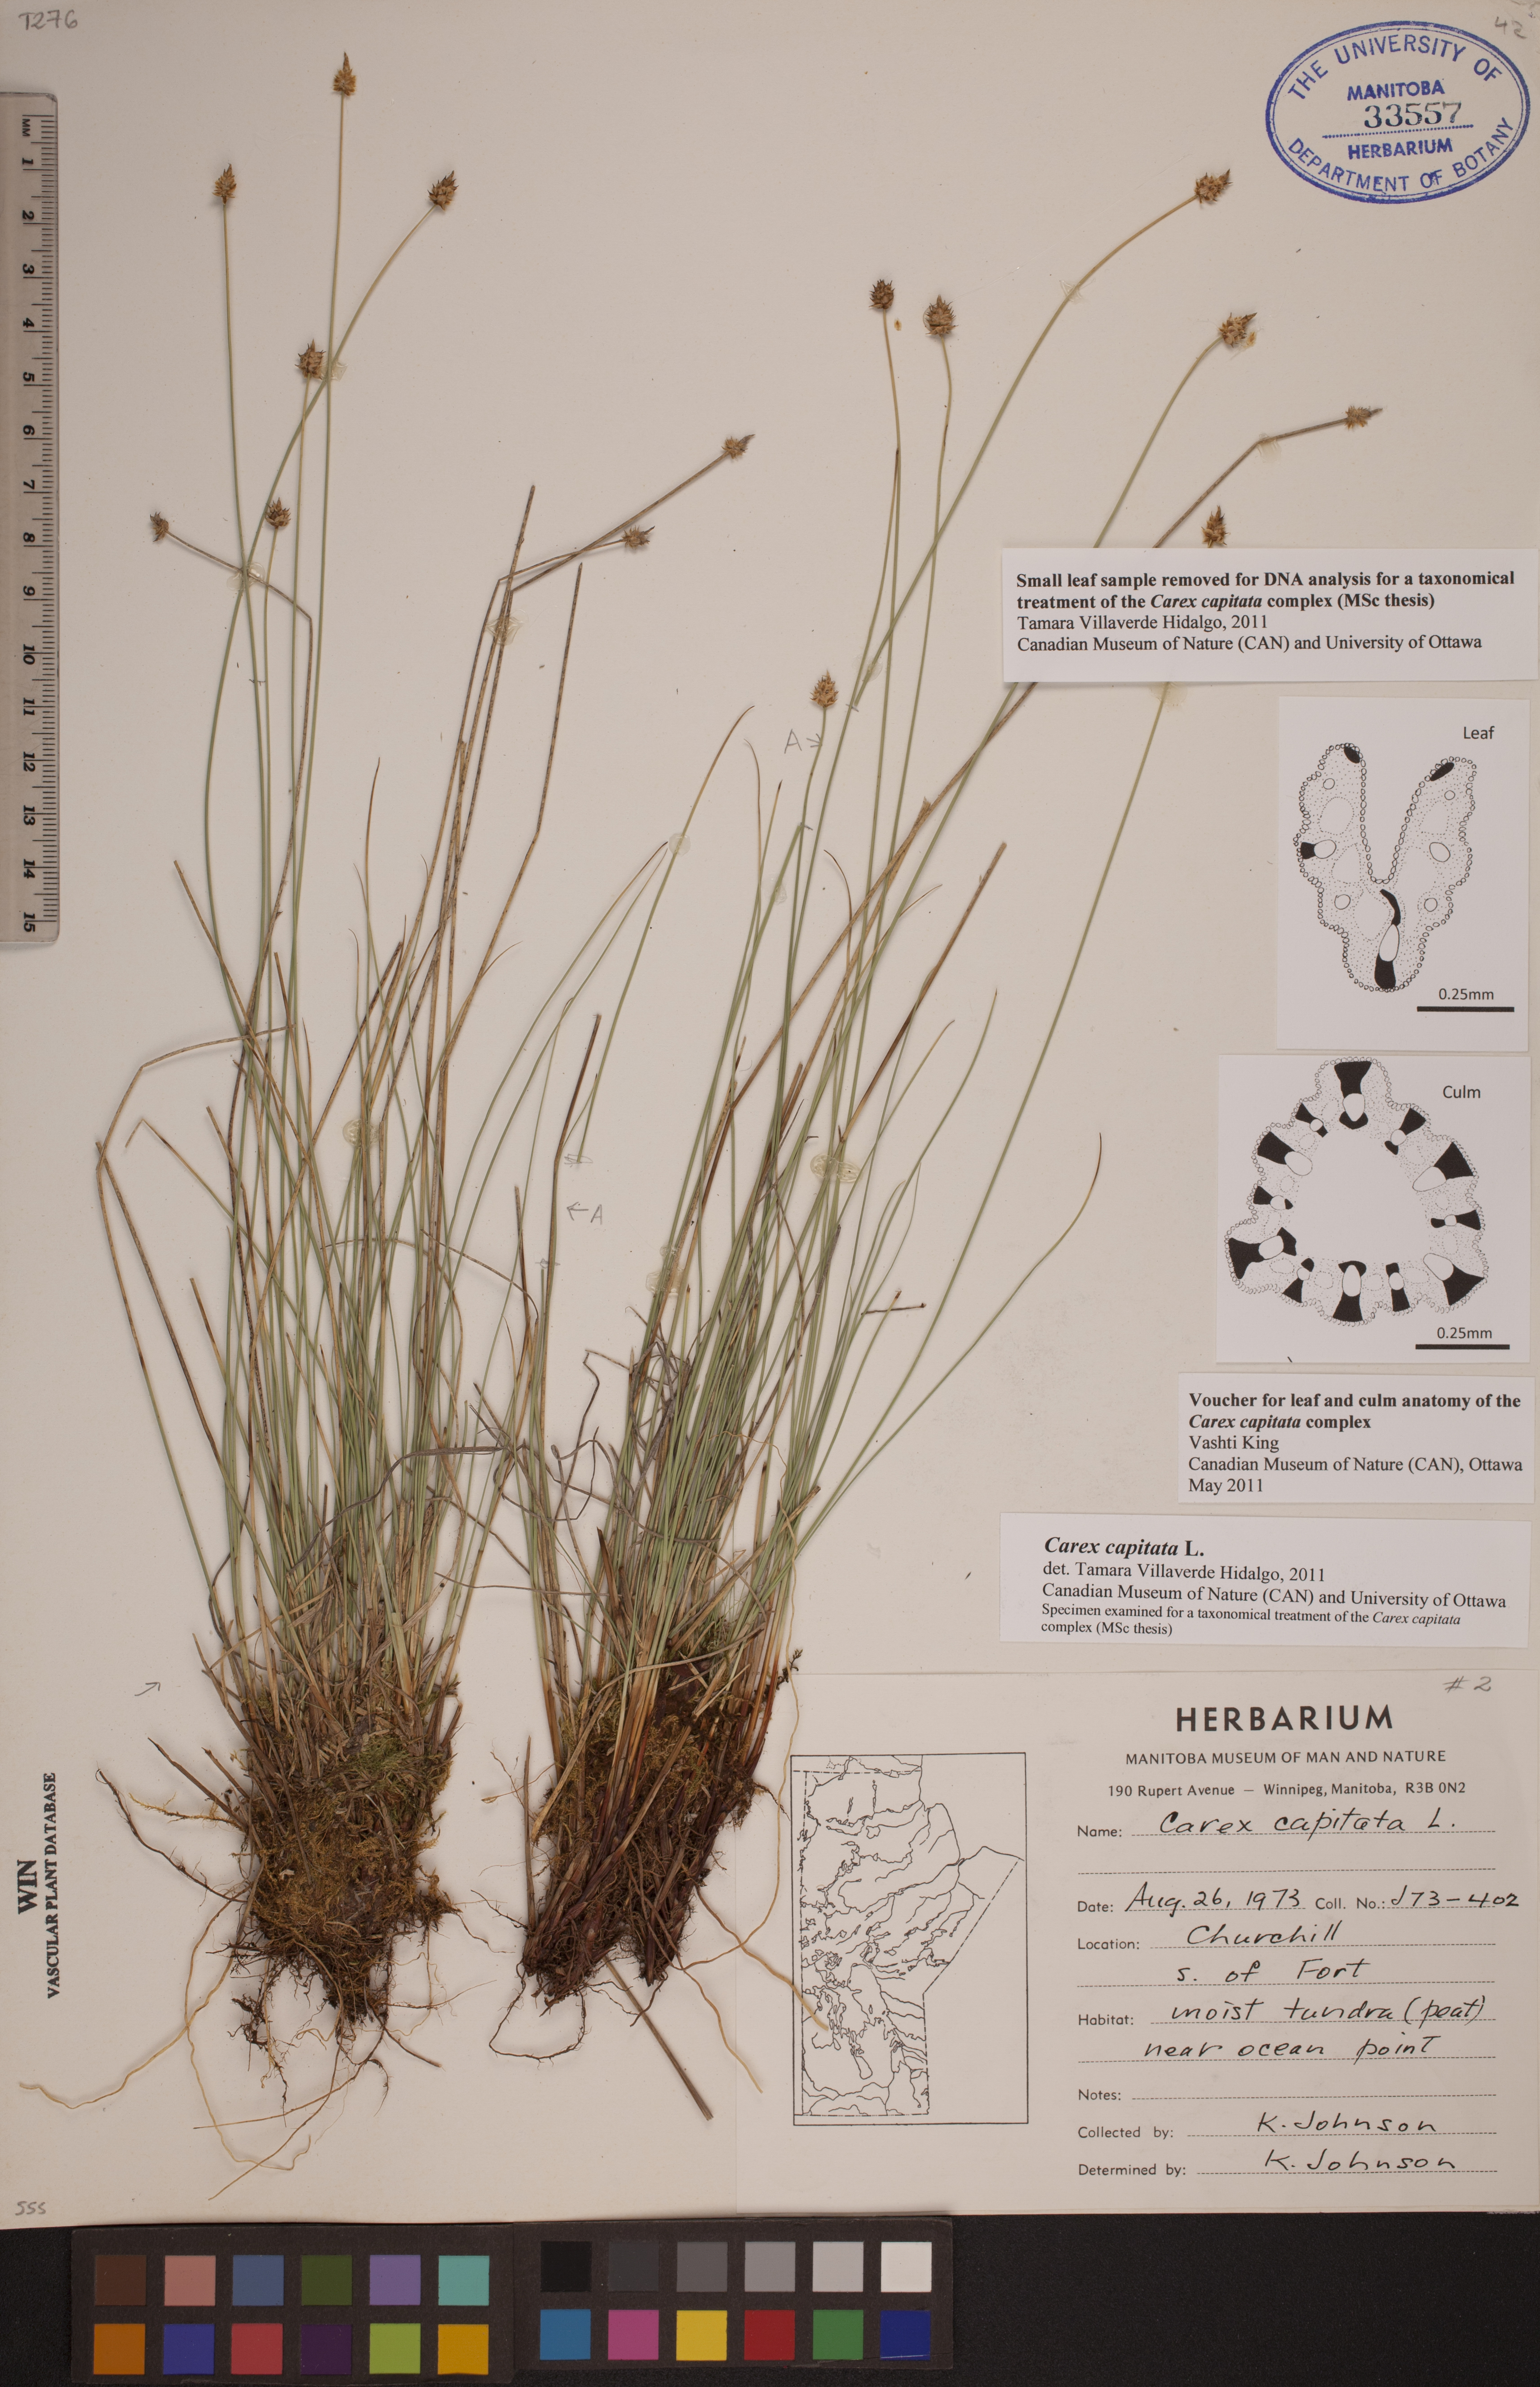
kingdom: Plantae
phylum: Tracheophyta
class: Liliopsida
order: Poales
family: Cyperaceae
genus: Carex
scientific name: Carex capitata
